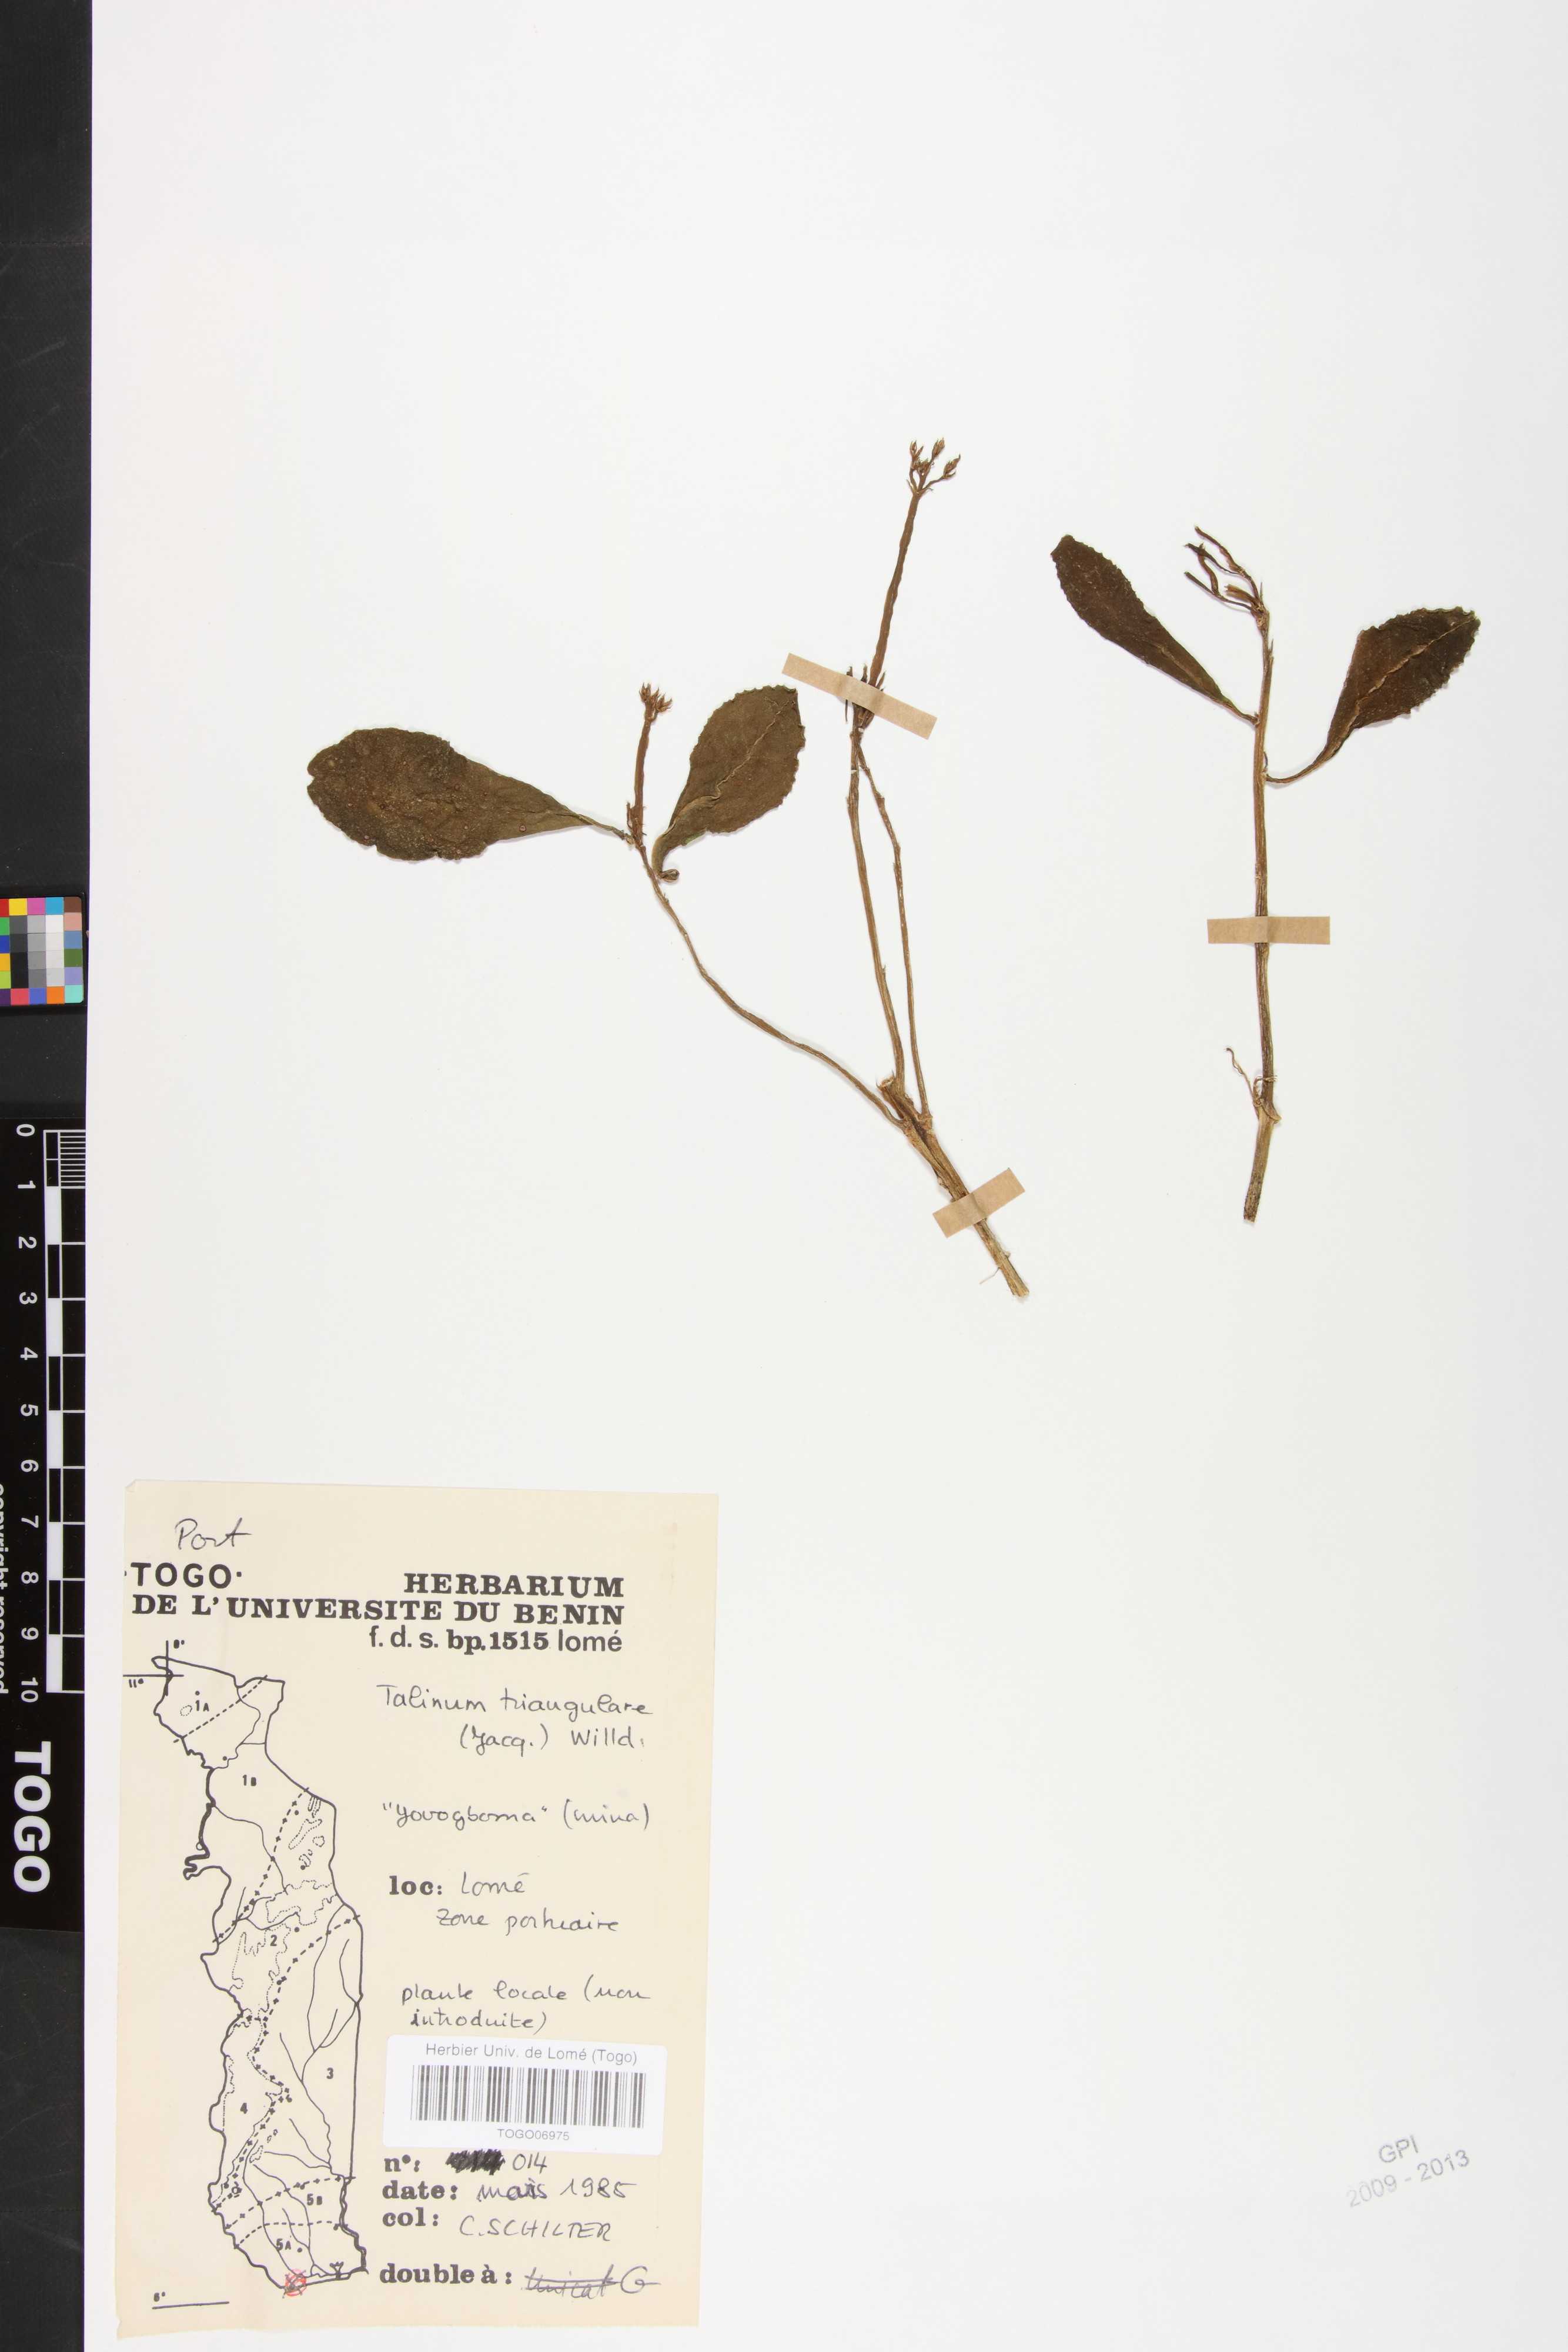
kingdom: Plantae
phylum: Tracheophyta
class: Magnoliopsida
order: Caryophyllales
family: Talinaceae
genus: Talinum
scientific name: Talinum fruticosum
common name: Verdolaga-francesa
